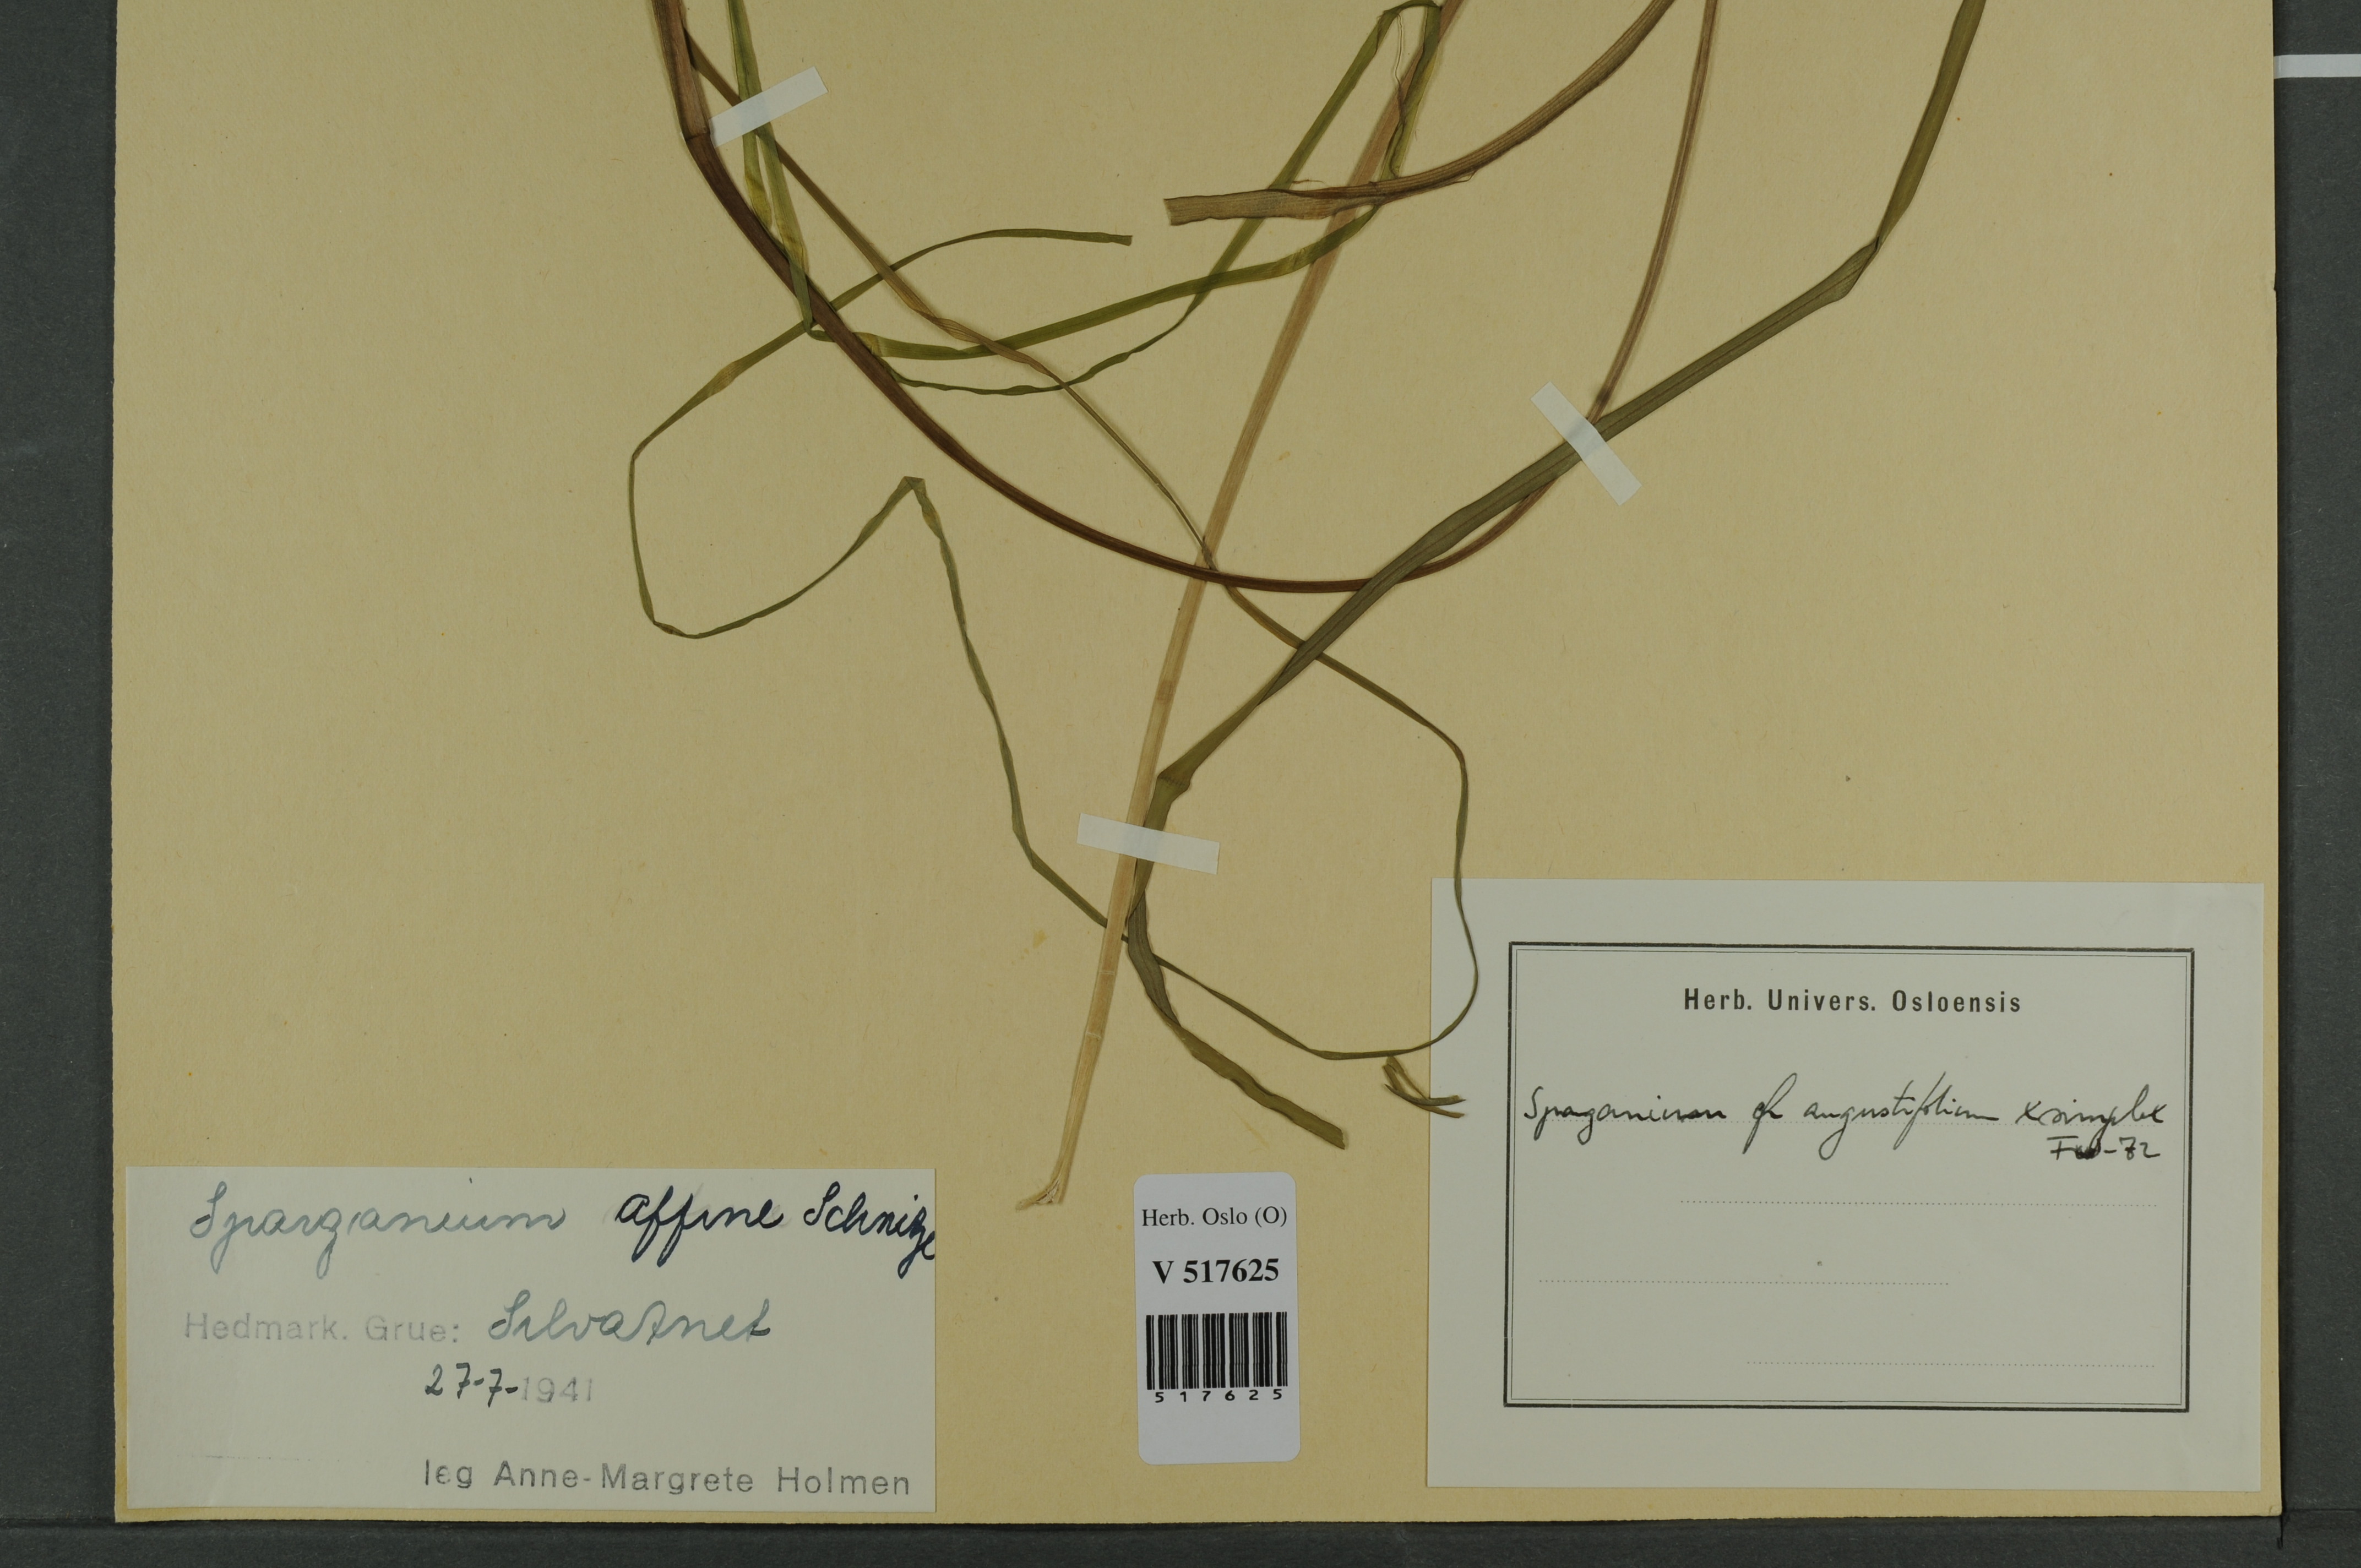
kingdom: Plantae
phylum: Tracheophyta
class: Liliopsida
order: Poales
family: Typhaceae
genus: Sparganium
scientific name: Sparganium
